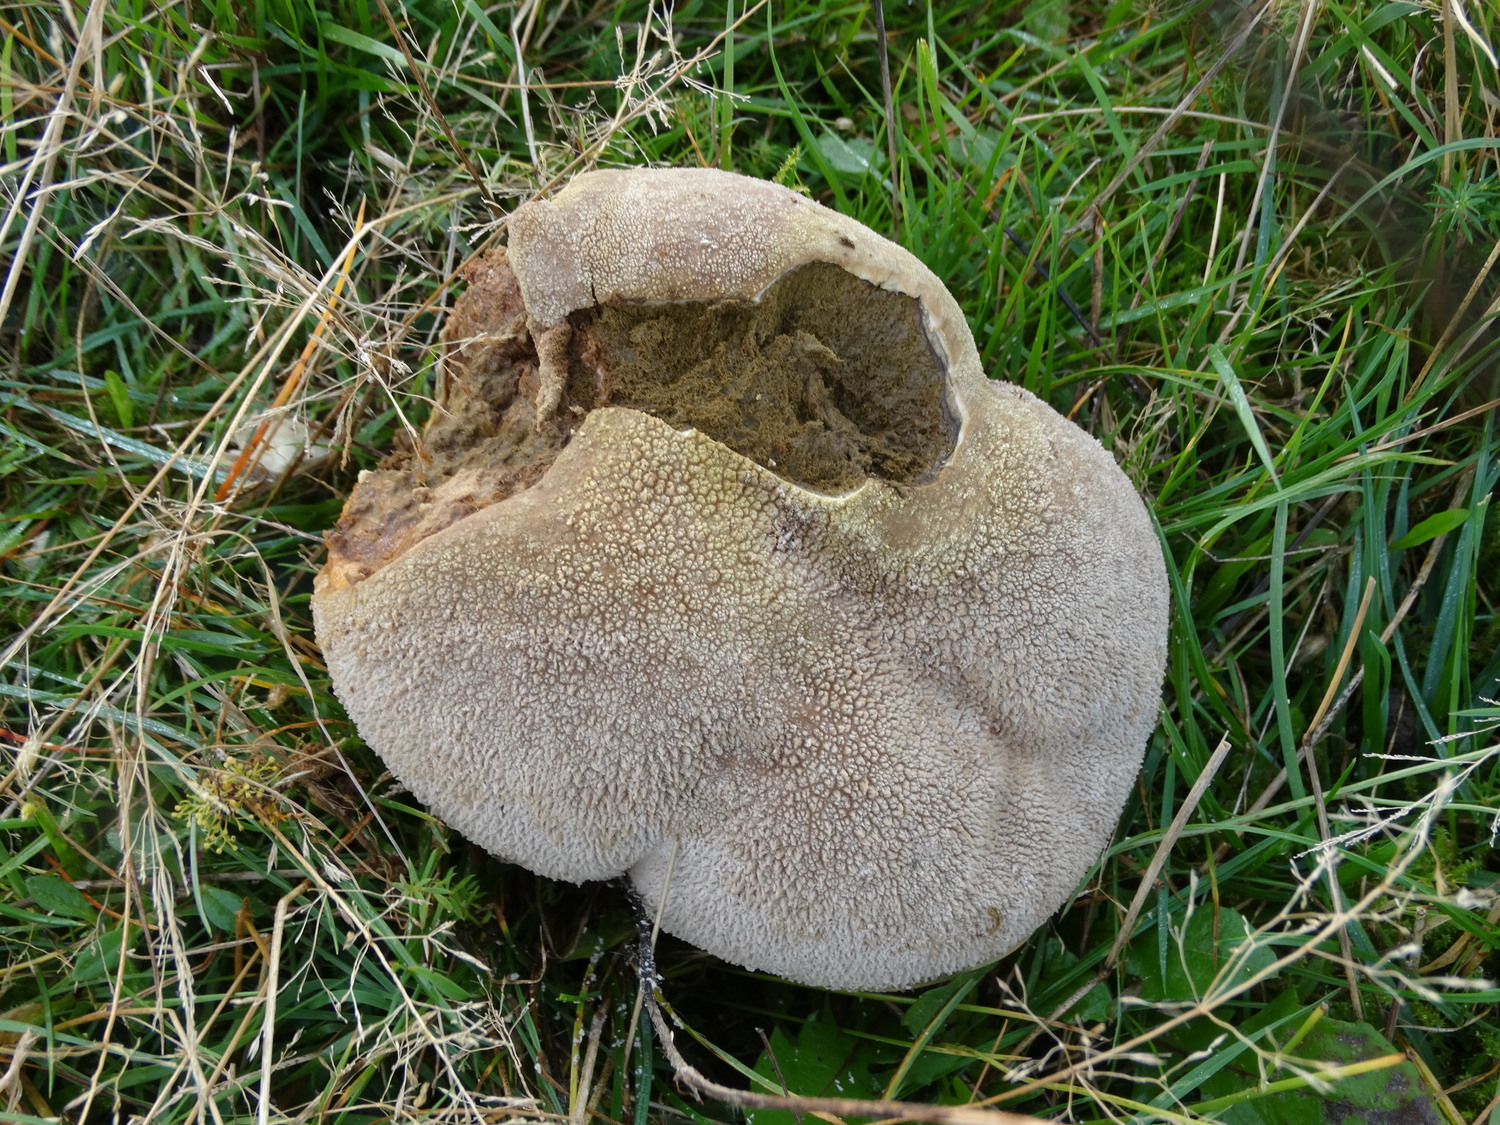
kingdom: Fungi
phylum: Basidiomycota
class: Agaricomycetes
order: Agaricales
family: Lycoperdaceae
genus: Bovistella
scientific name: Bovistella utriformis
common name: skællet støvbold
